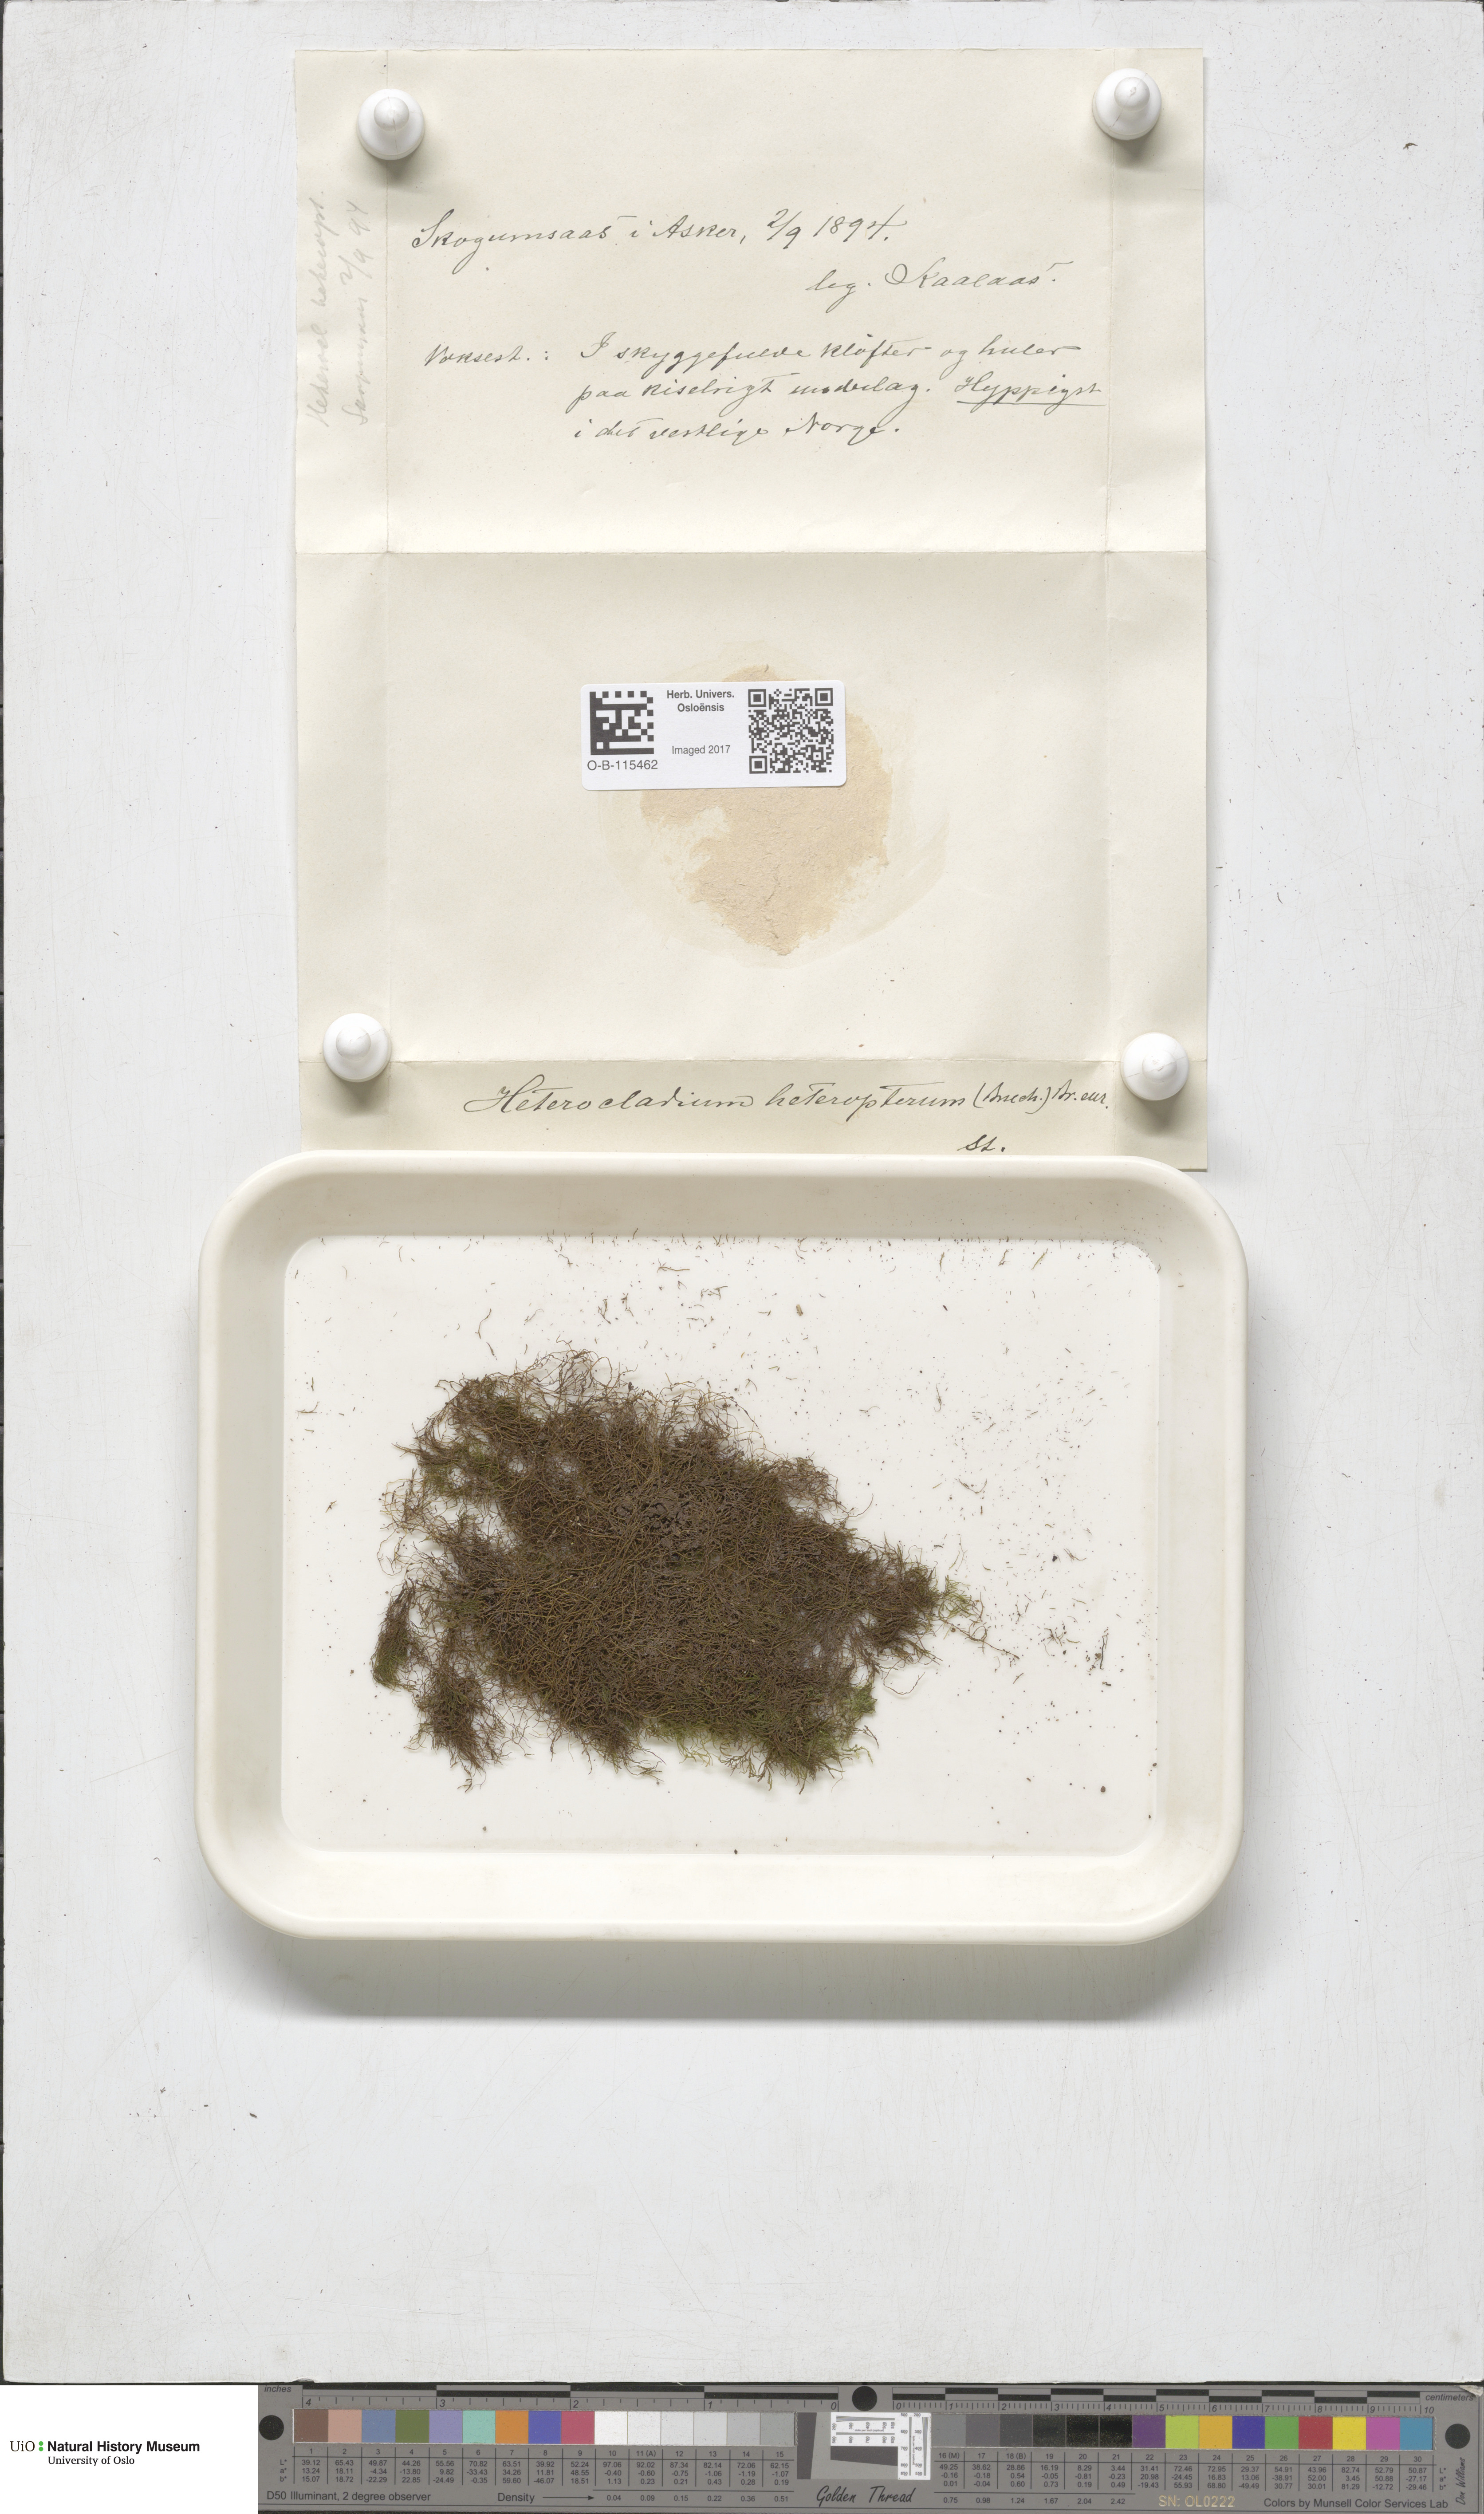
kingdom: Plantae
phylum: Bryophyta
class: Bryopsida
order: Hypnales
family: Lembophyllaceae
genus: Heterocladium
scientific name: Heterocladium heteropterum
